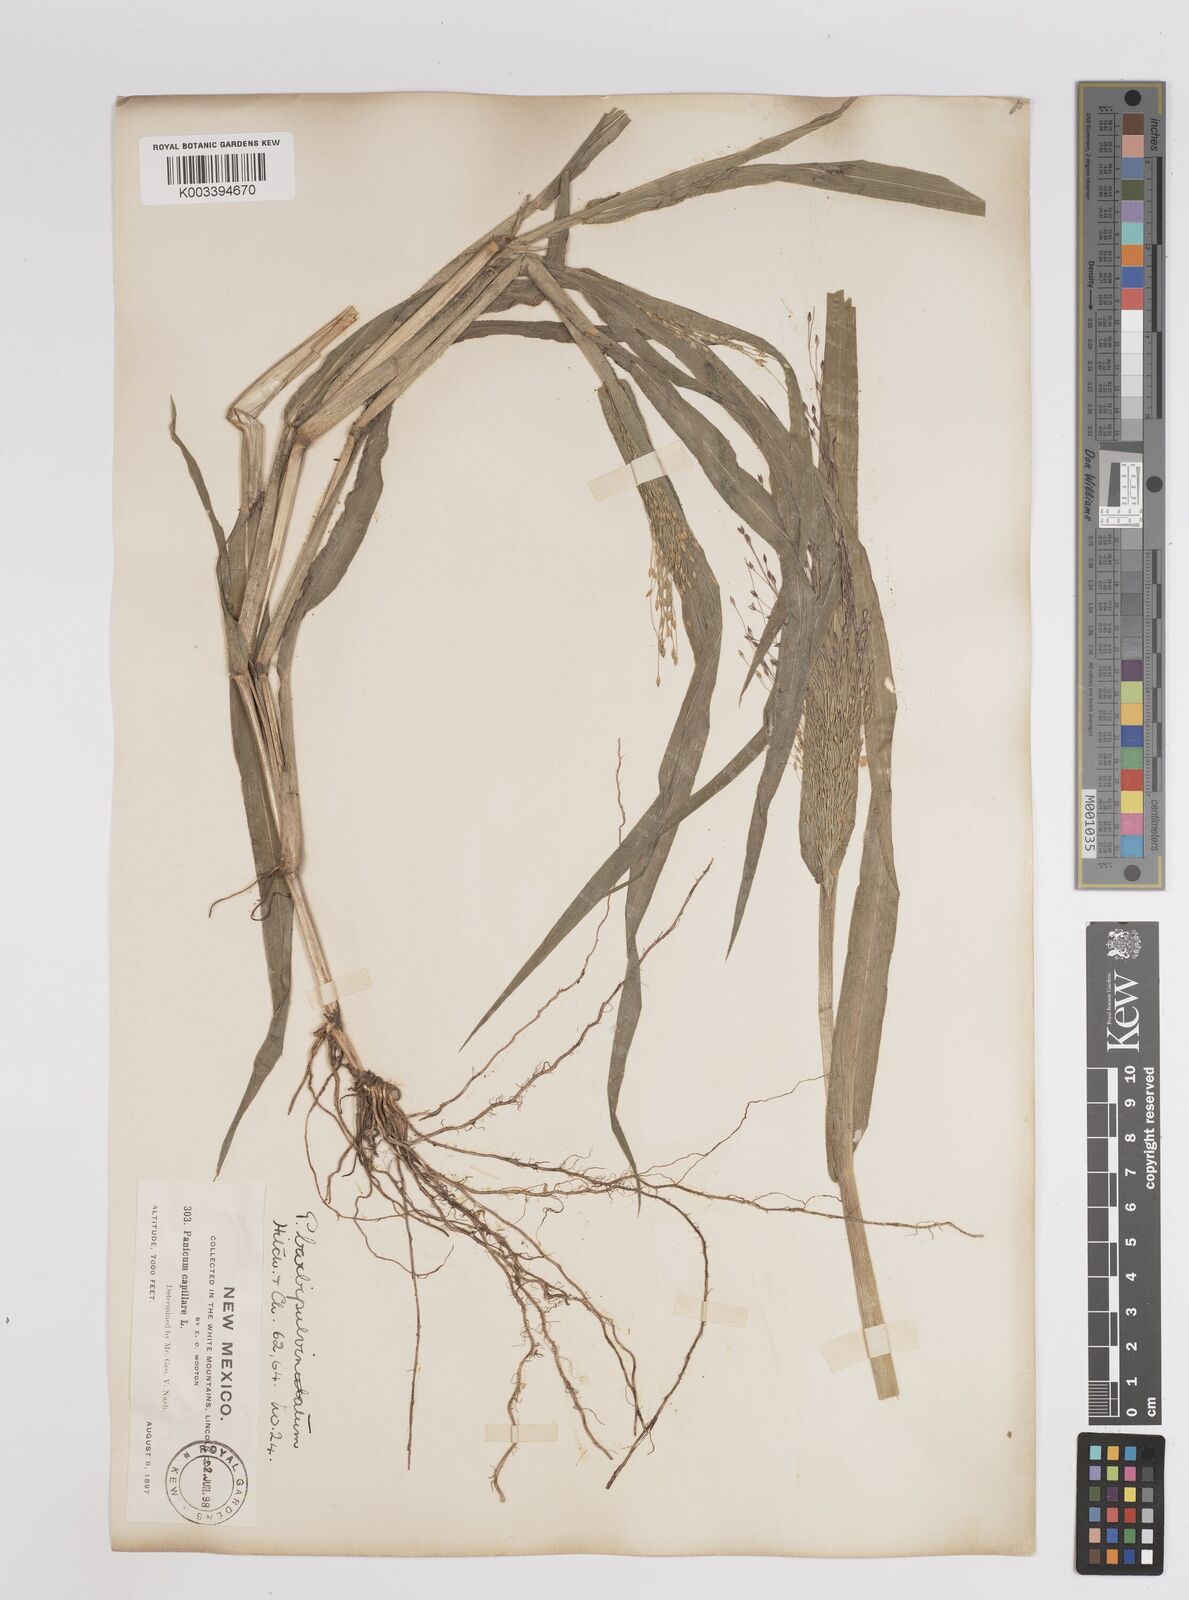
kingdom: Plantae
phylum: Tracheophyta
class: Liliopsida
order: Poales
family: Poaceae
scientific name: Poaceae
